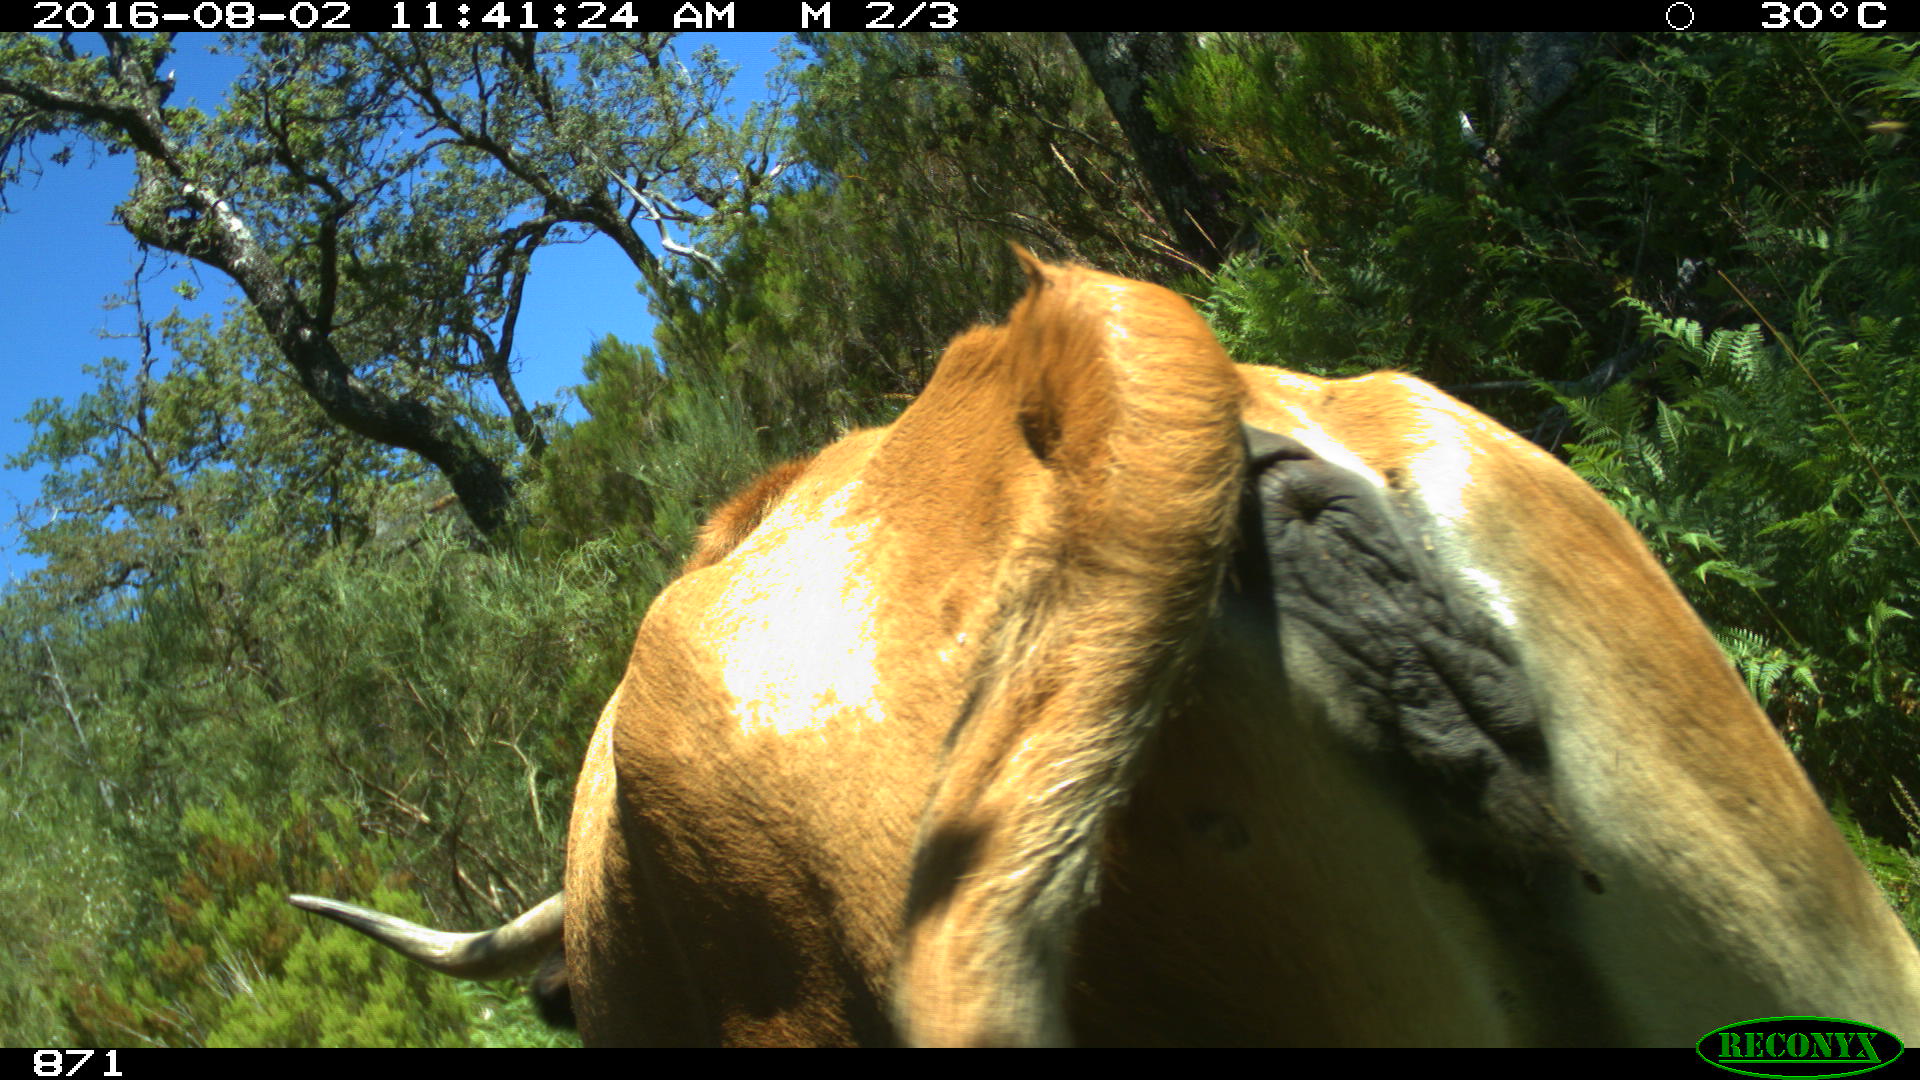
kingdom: Animalia
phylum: Chordata
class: Mammalia
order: Artiodactyla
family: Bovidae
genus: Bos
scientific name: Bos taurus
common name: Domesticated cattle
